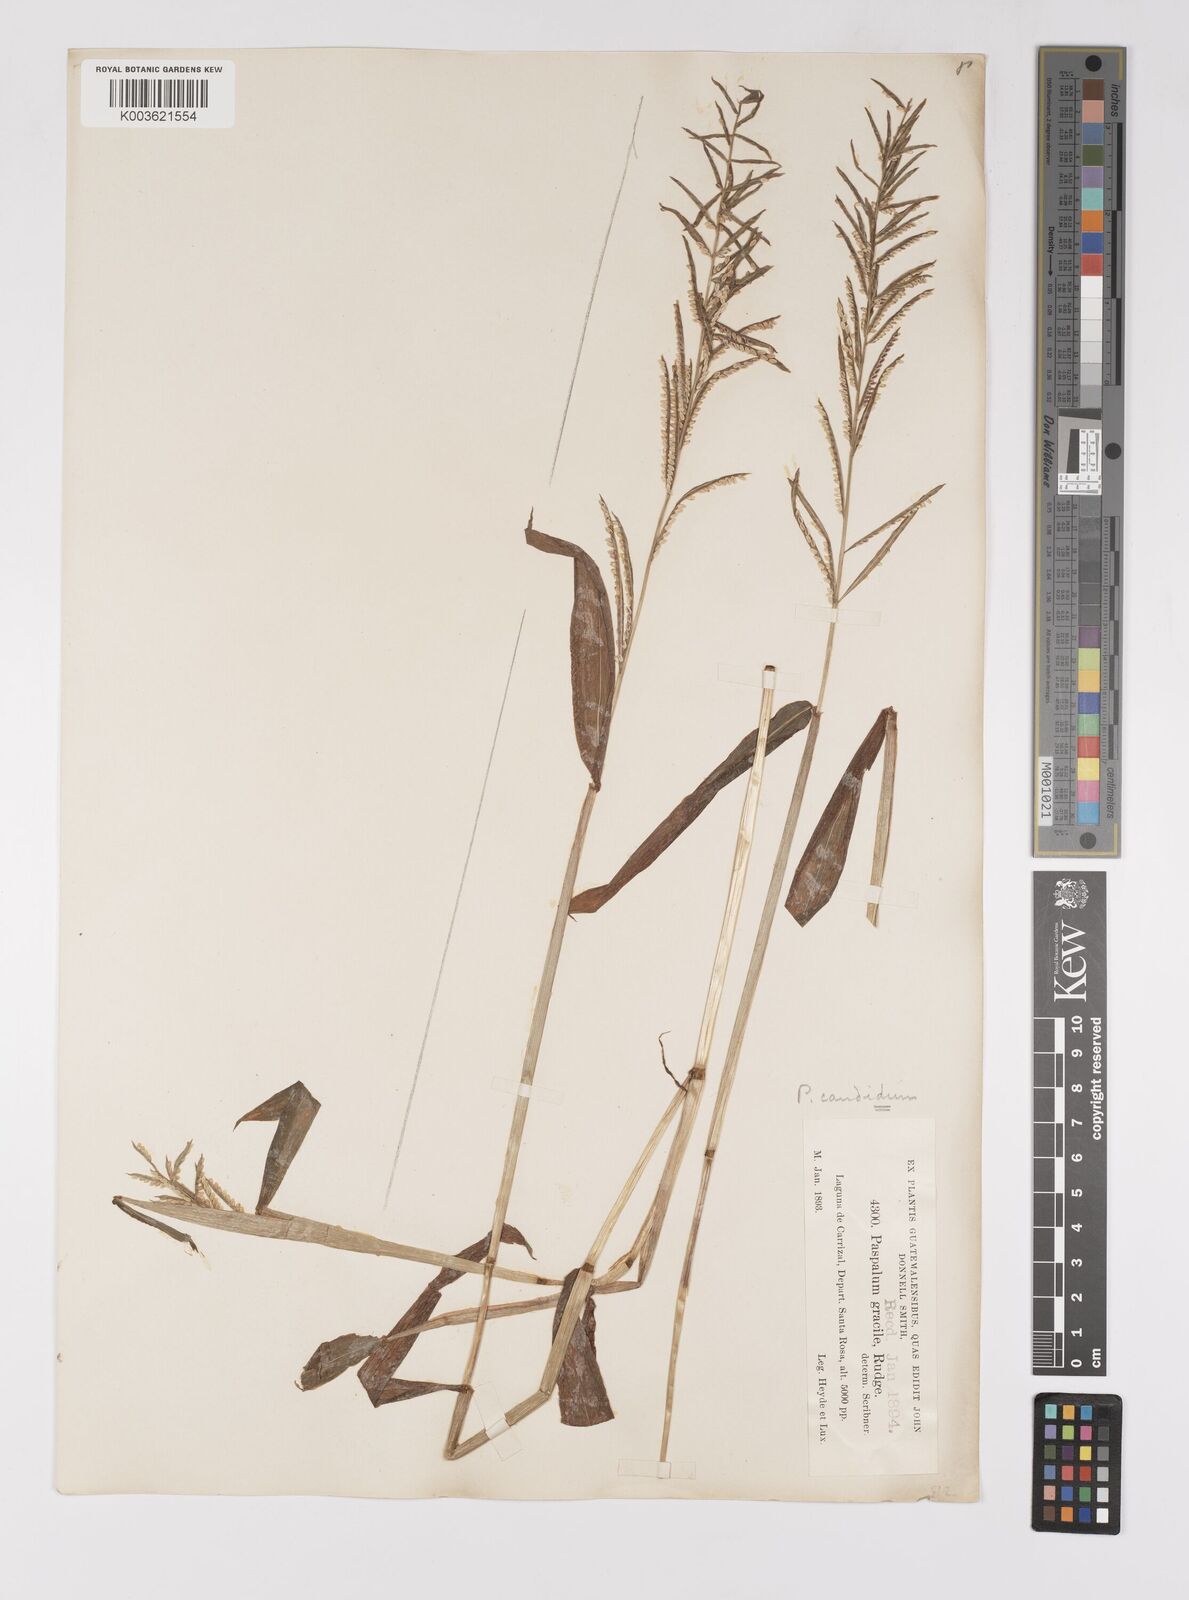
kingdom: Plantae
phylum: Tracheophyta
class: Liliopsida
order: Poales
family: Poaceae
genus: Paspalum
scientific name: Paspalum candidum
